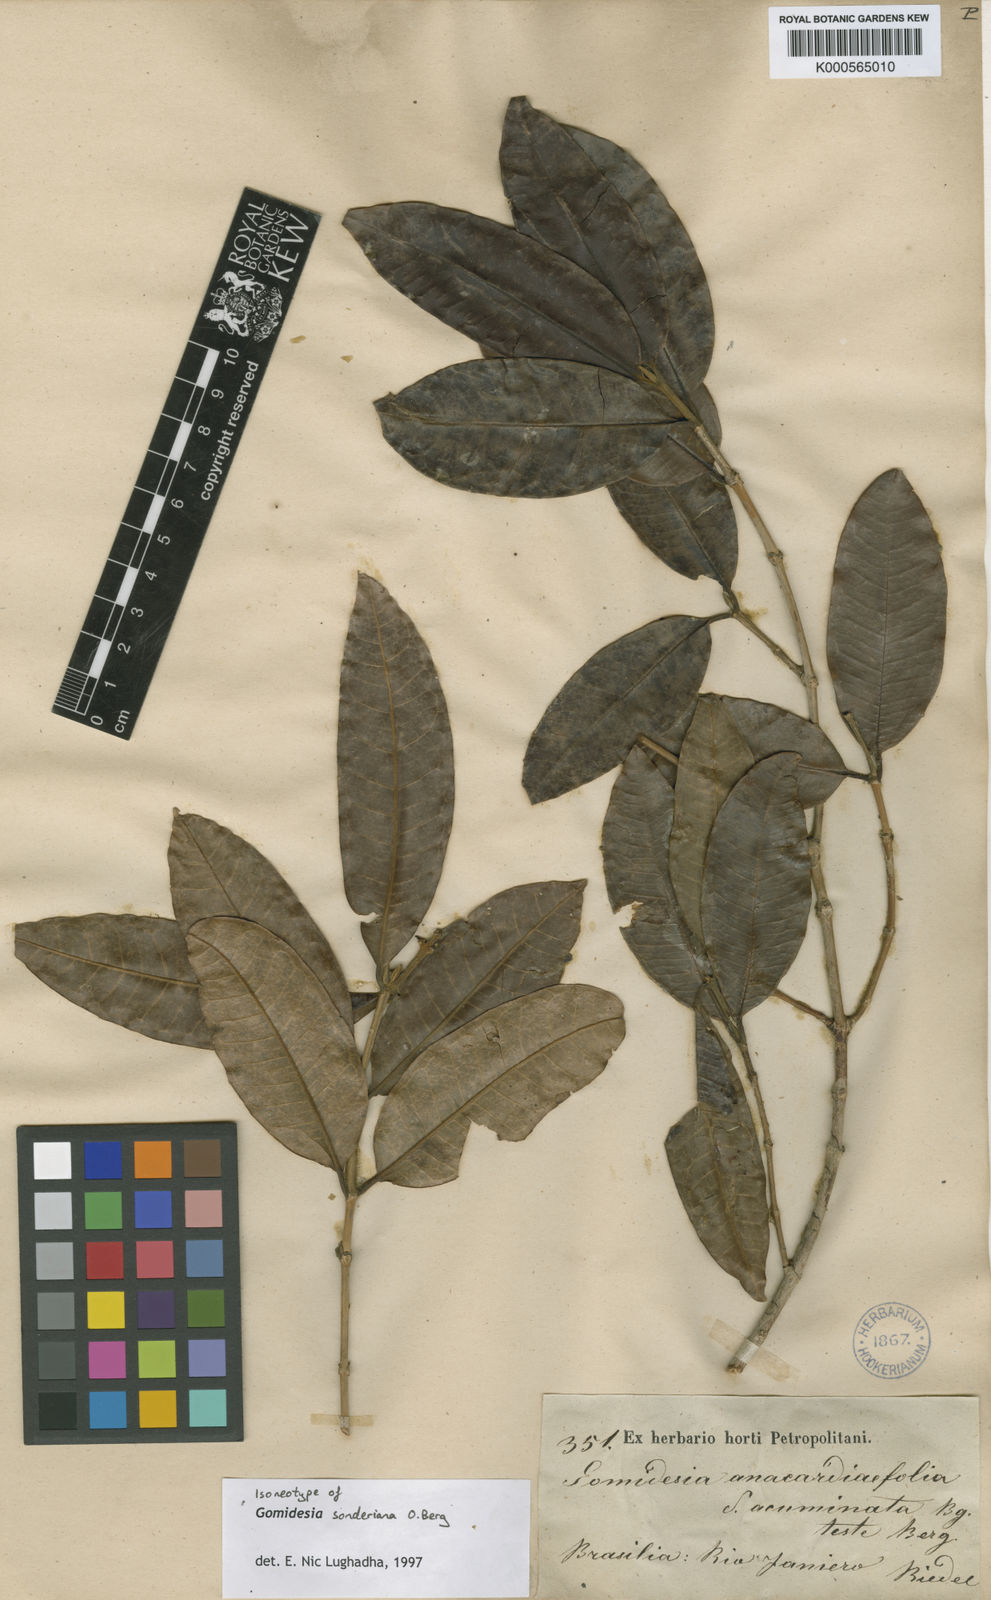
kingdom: Plantae
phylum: Tracheophyta
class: Magnoliopsida
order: Myrtales
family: Myrtaceae
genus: Myrcia
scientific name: Myrcia dolichopetala
